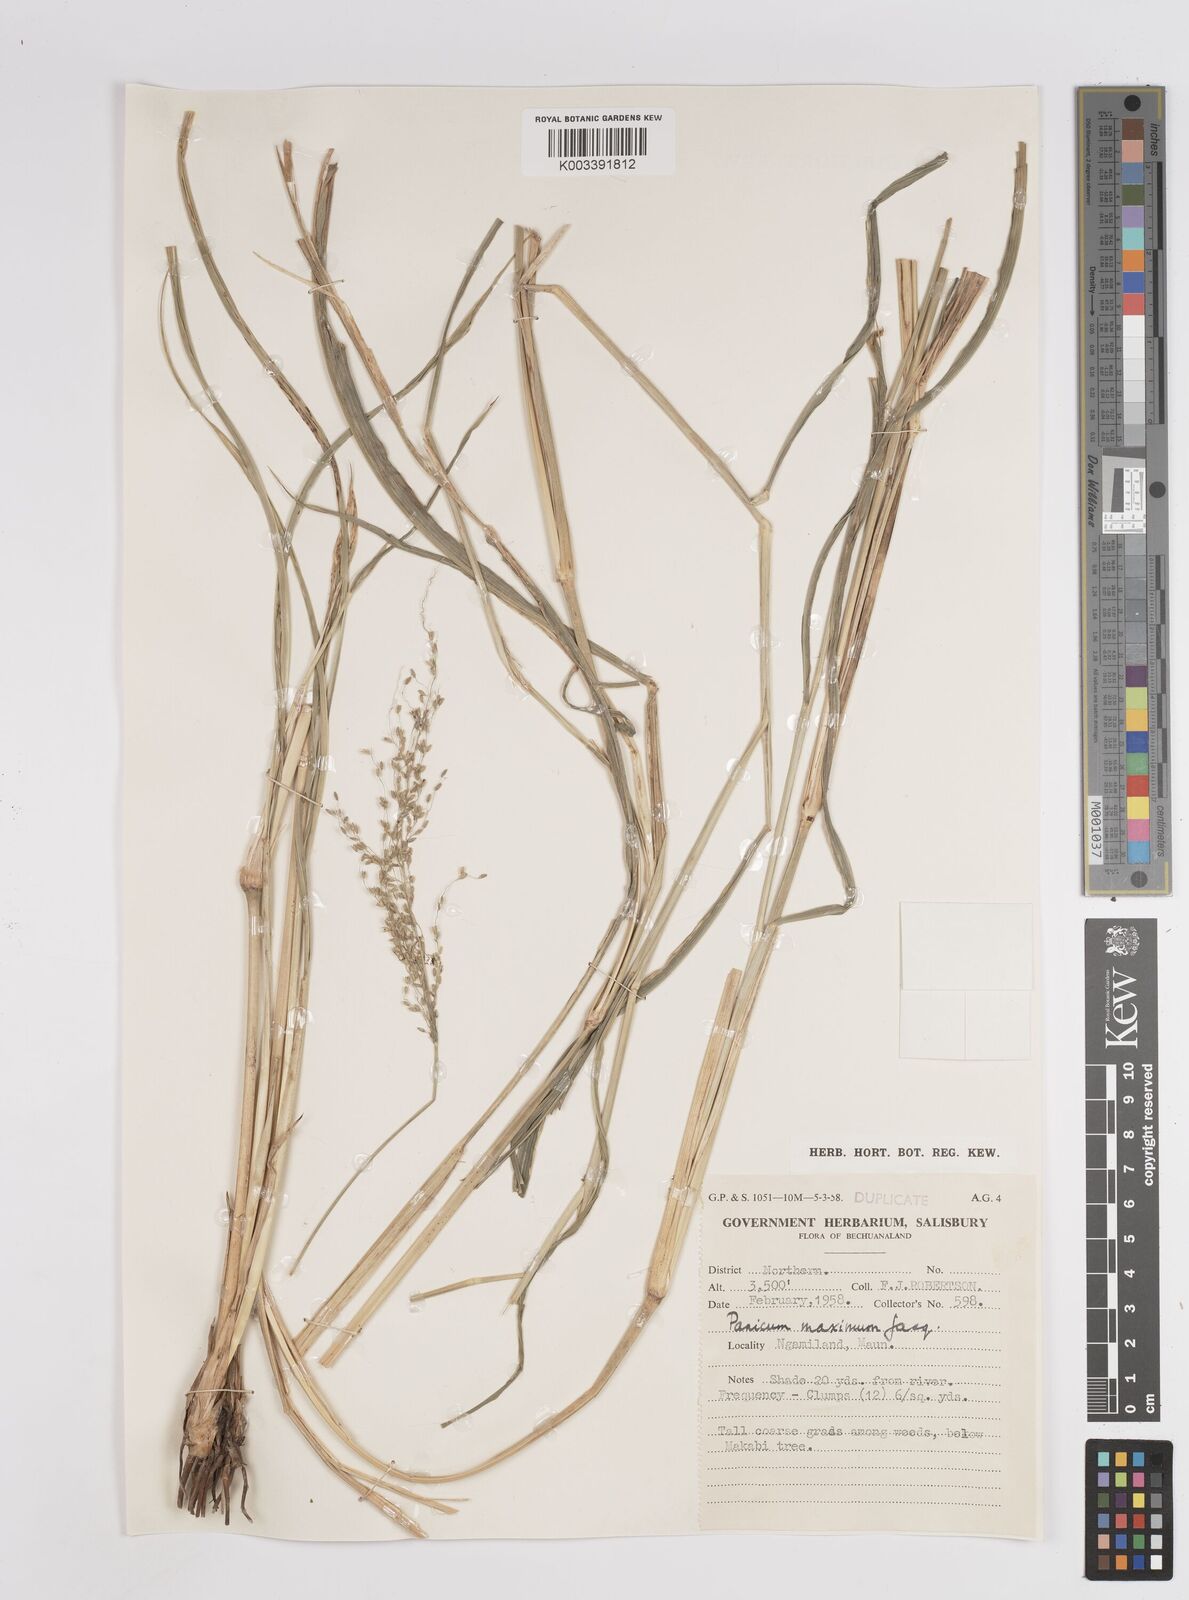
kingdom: Plantae
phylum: Tracheophyta
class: Liliopsida
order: Poales
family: Poaceae
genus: Megathyrsus
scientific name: Megathyrsus maximus
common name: Guineagrass
